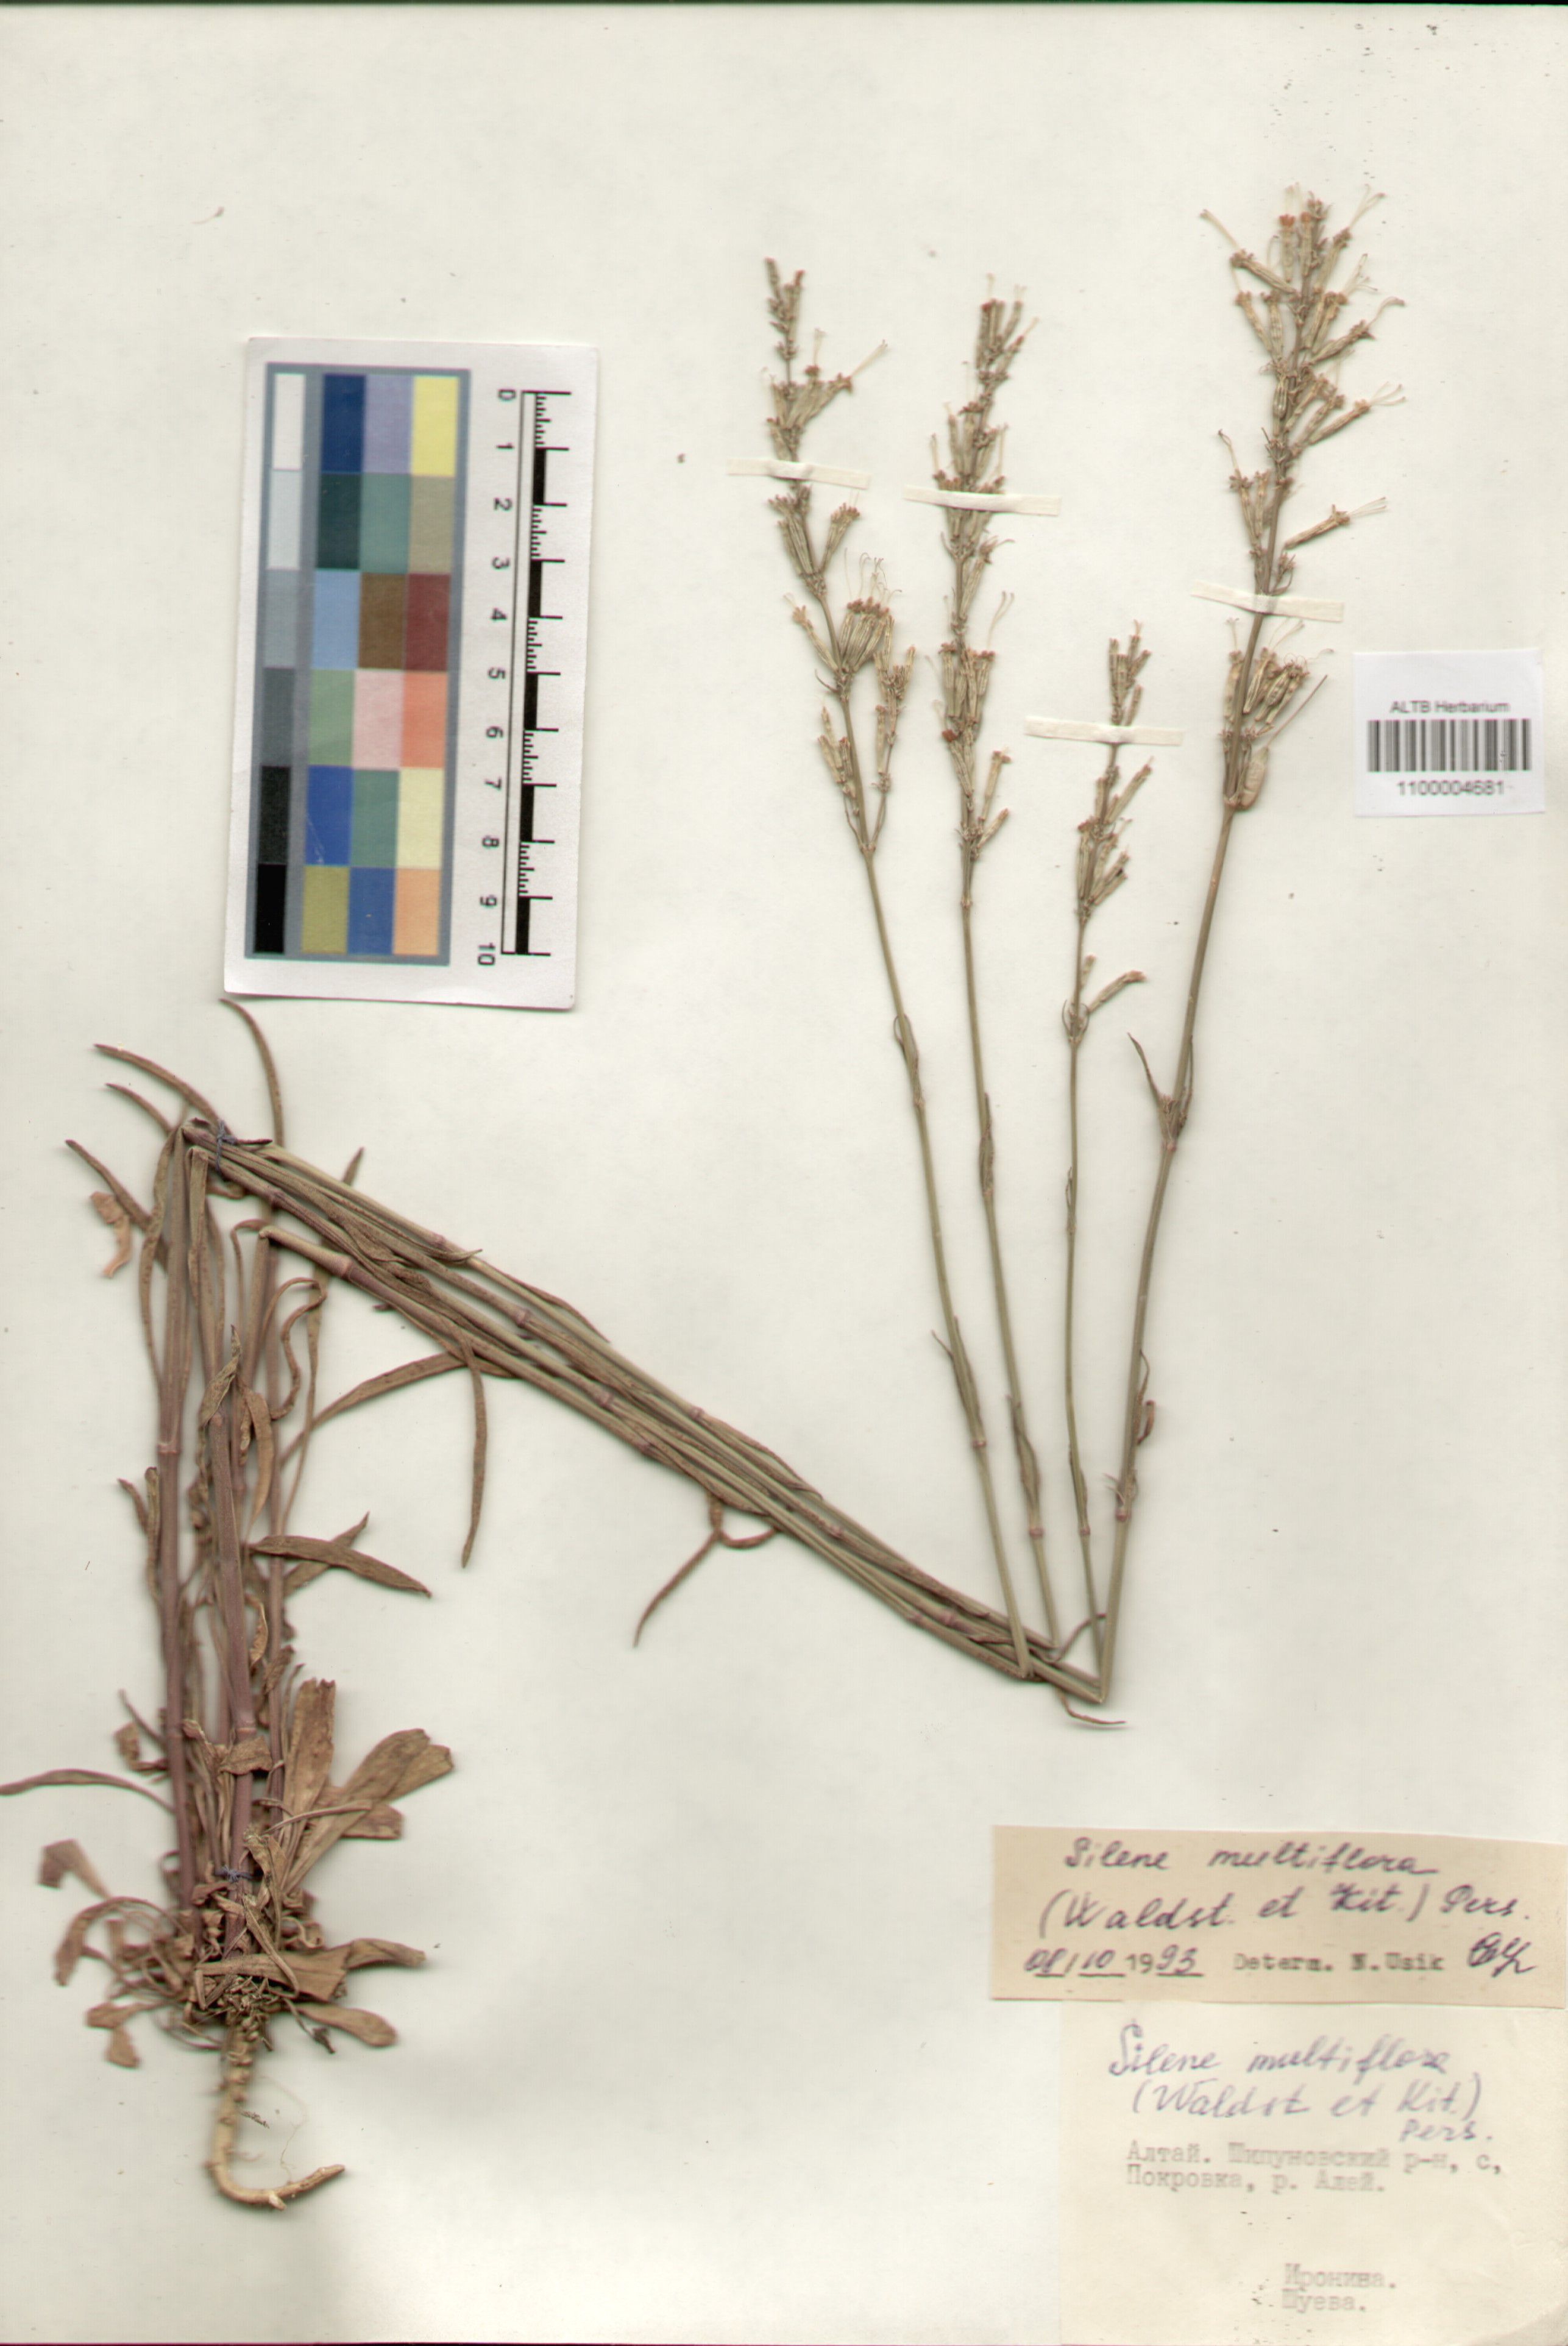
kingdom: Plantae
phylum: Tracheophyta
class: Magnoliopsida
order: Caryophyllales
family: Caryophyllaceae
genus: Silene
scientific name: Silene multiflora
